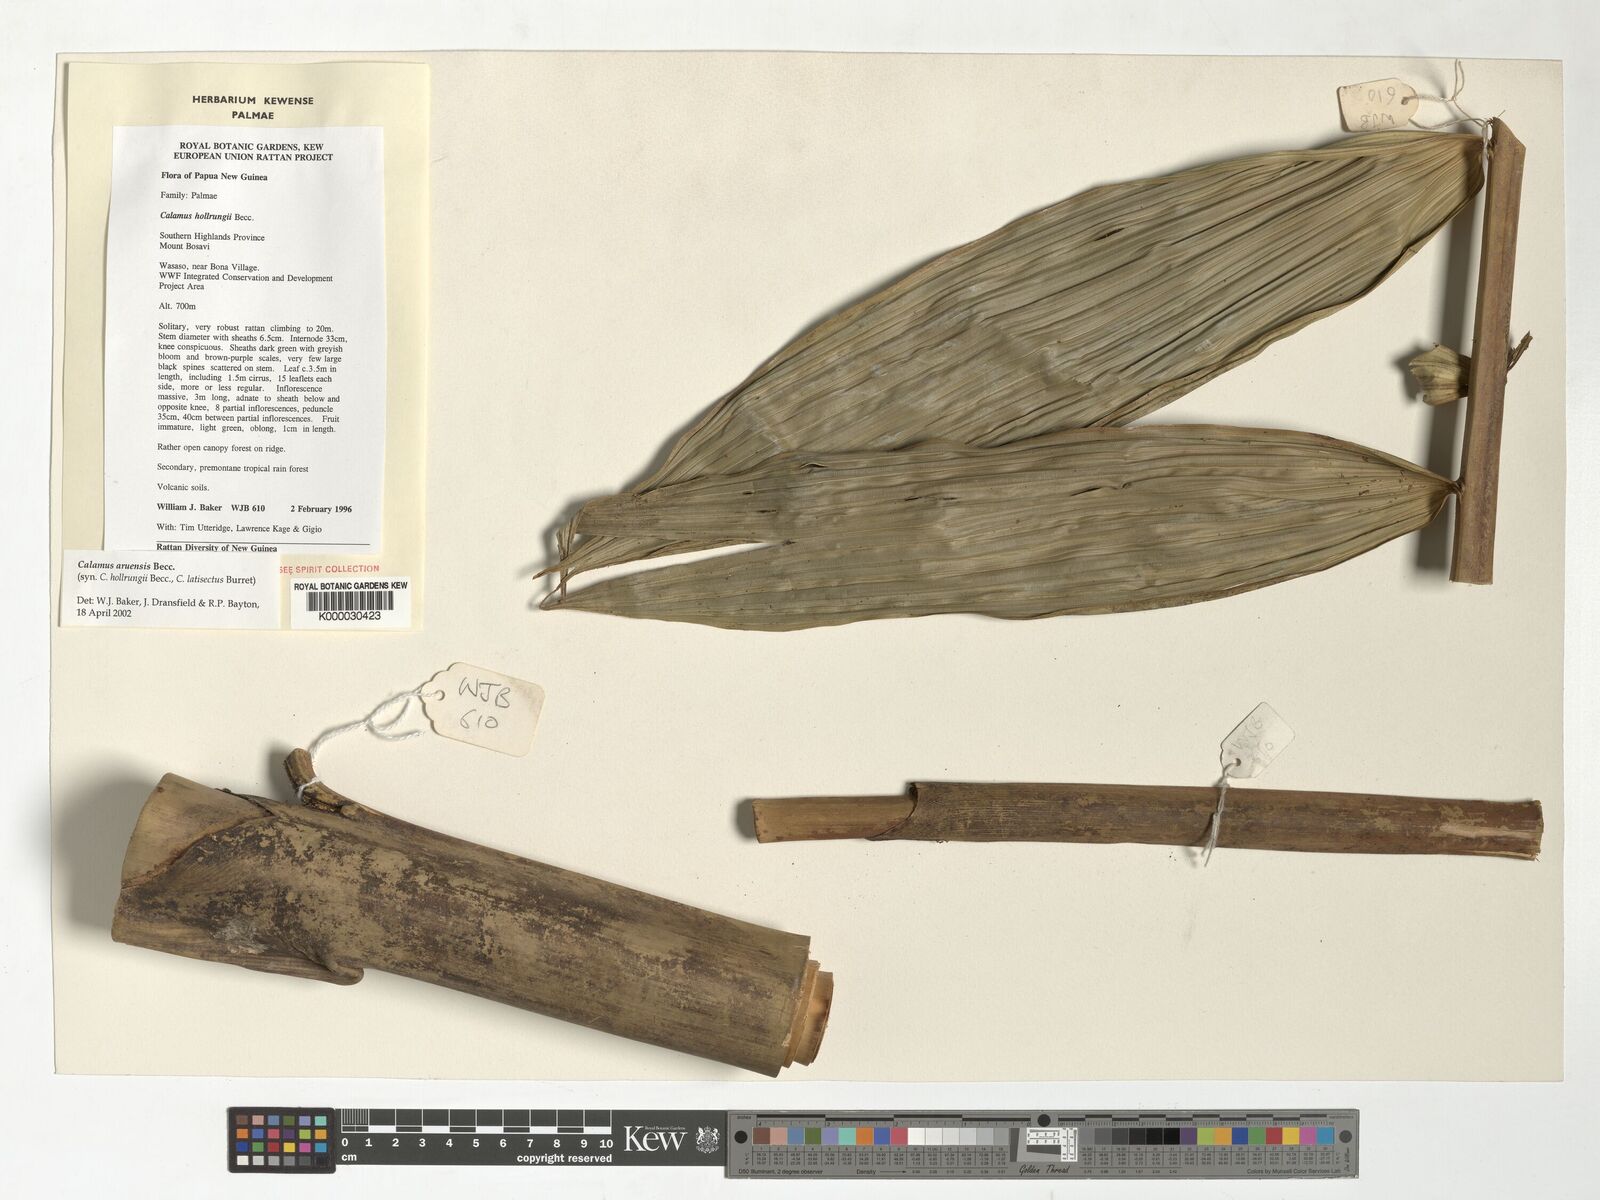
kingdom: Plantae
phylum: Tracheophyta
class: Liliopsida
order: Arecales
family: Arecaceae
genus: Calamus
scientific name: Calamus aruensis
